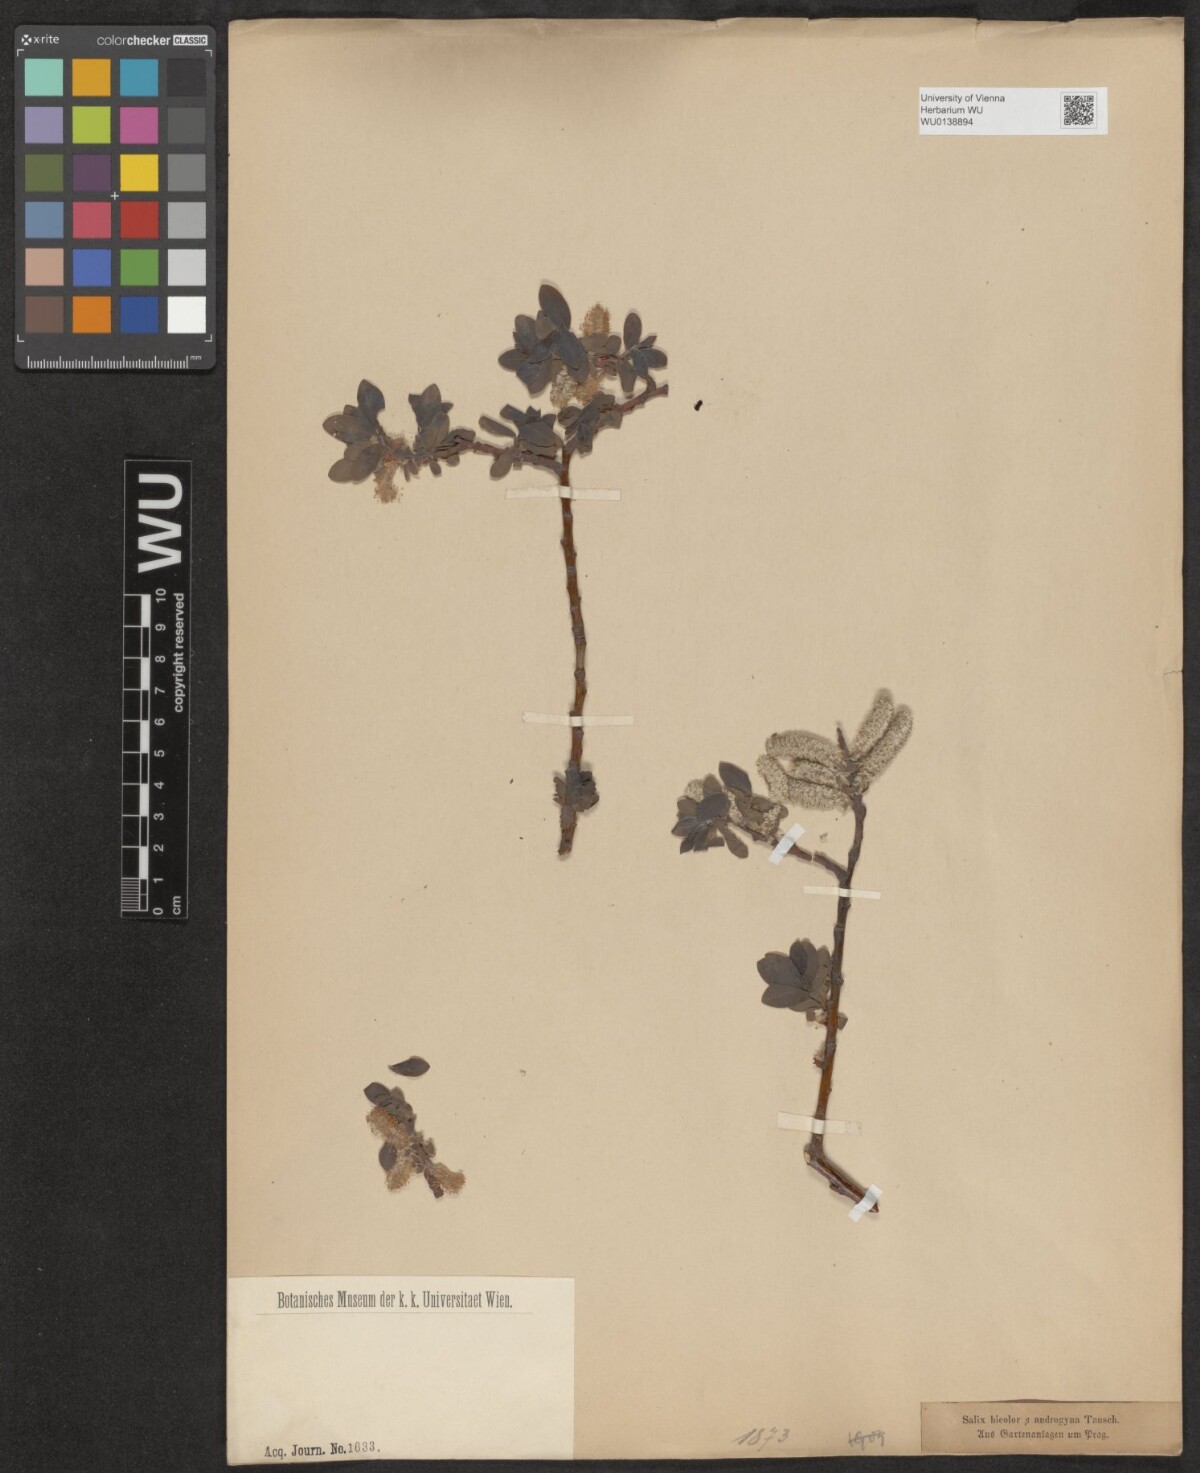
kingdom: Plantae
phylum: Tracheophyta
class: Magnoliopsida
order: Malpighiales
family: Salicaceae
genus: Salix
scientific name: Salix phylicifolia
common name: Tea-leaved willow
